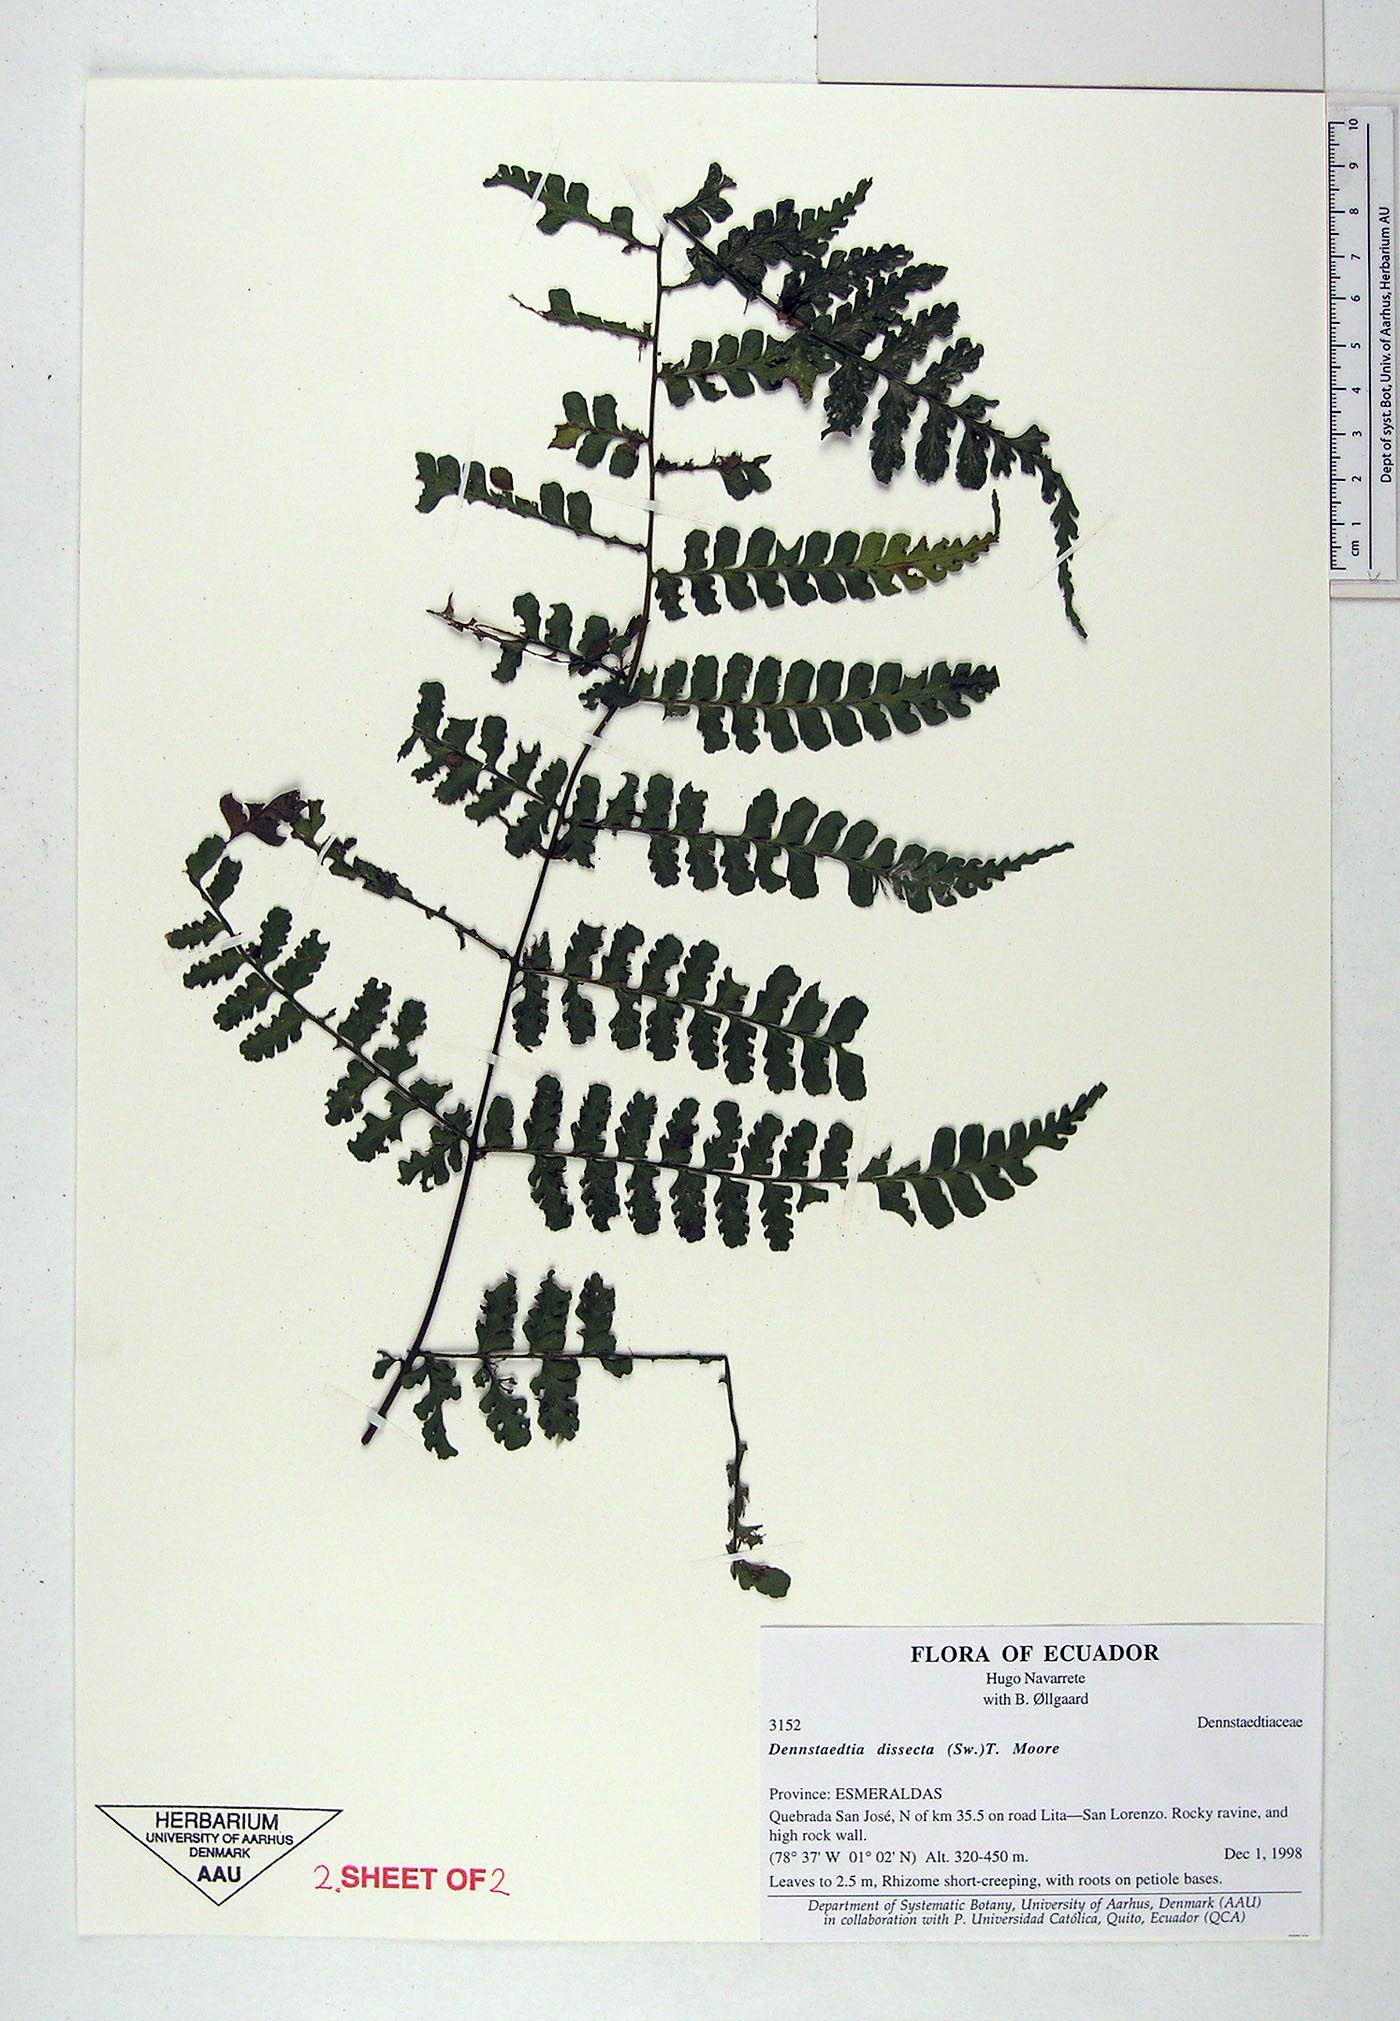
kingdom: Plantae
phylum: Tracheophyta
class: Polypodiopsida
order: Polypodiales
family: Dennstaedtiaceae
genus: Dennstaedtia
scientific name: Dennstaedtia dissecta
